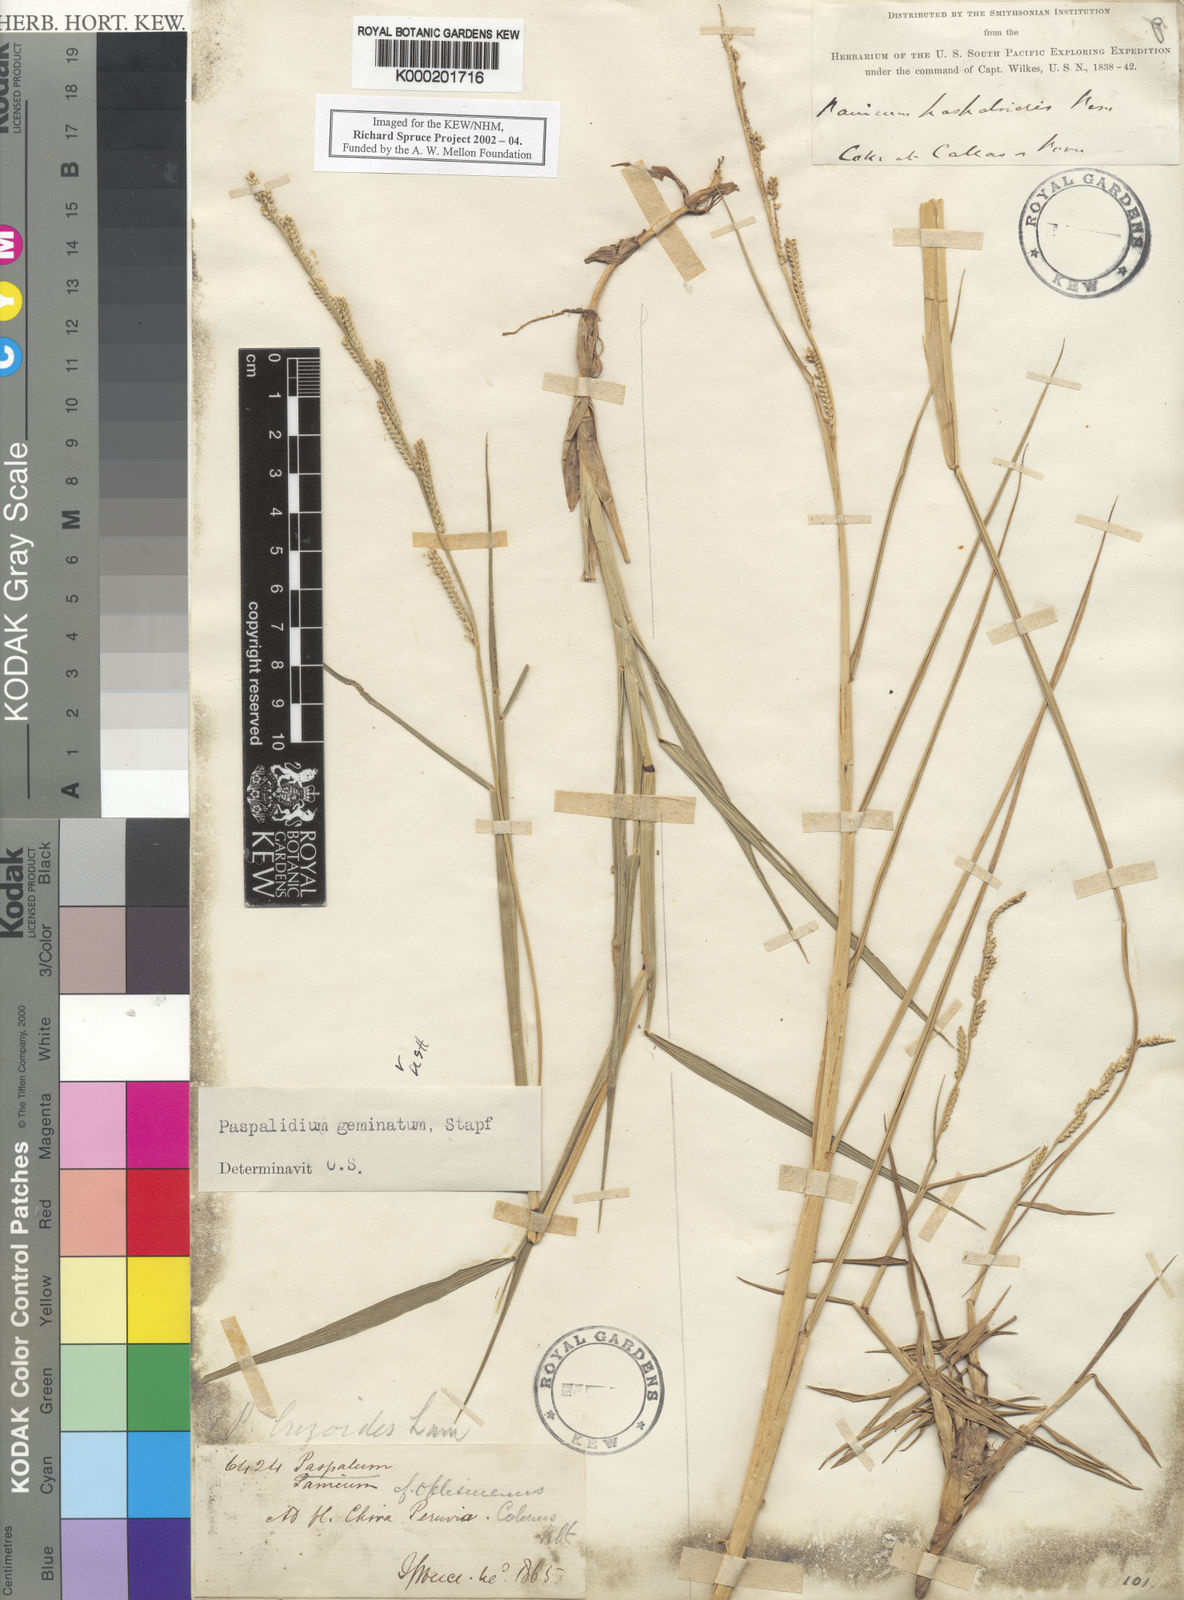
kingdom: Plantae
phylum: Tracheophyta
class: Liliopsida
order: Poales
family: Poaceae
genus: Setaria
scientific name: Setaria geminata
